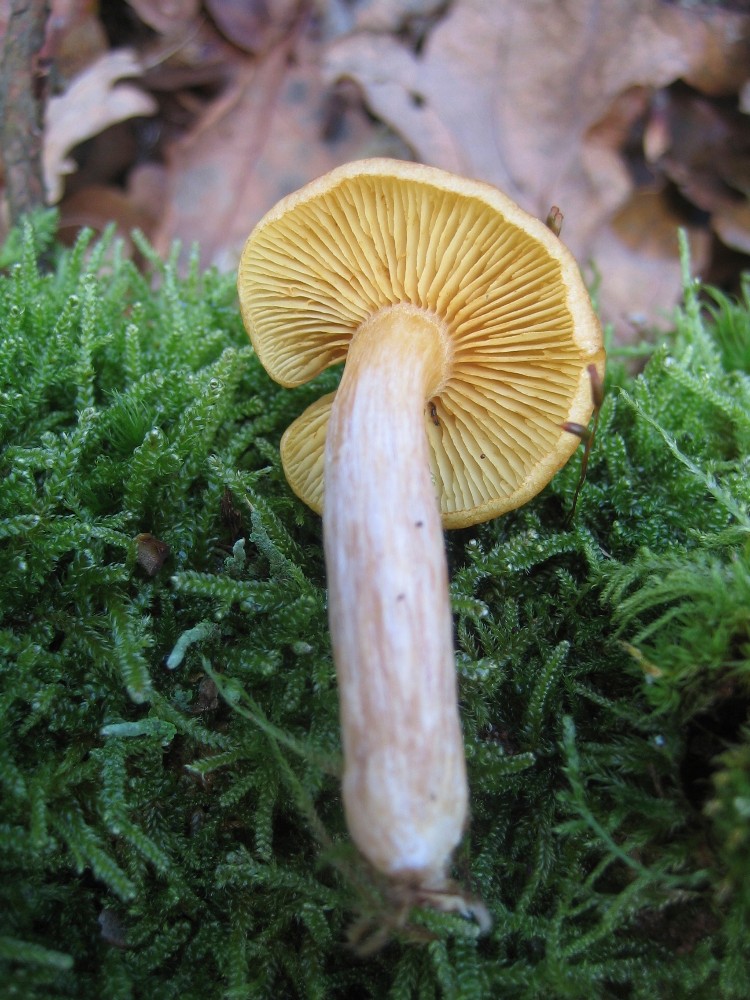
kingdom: Fungi
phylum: Basidiomycota
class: Agaricomycetes
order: Agaricales
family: Hymenogastraceae
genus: Gymnopilus
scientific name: Gymnopilus penetrans
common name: plettet flammehat
